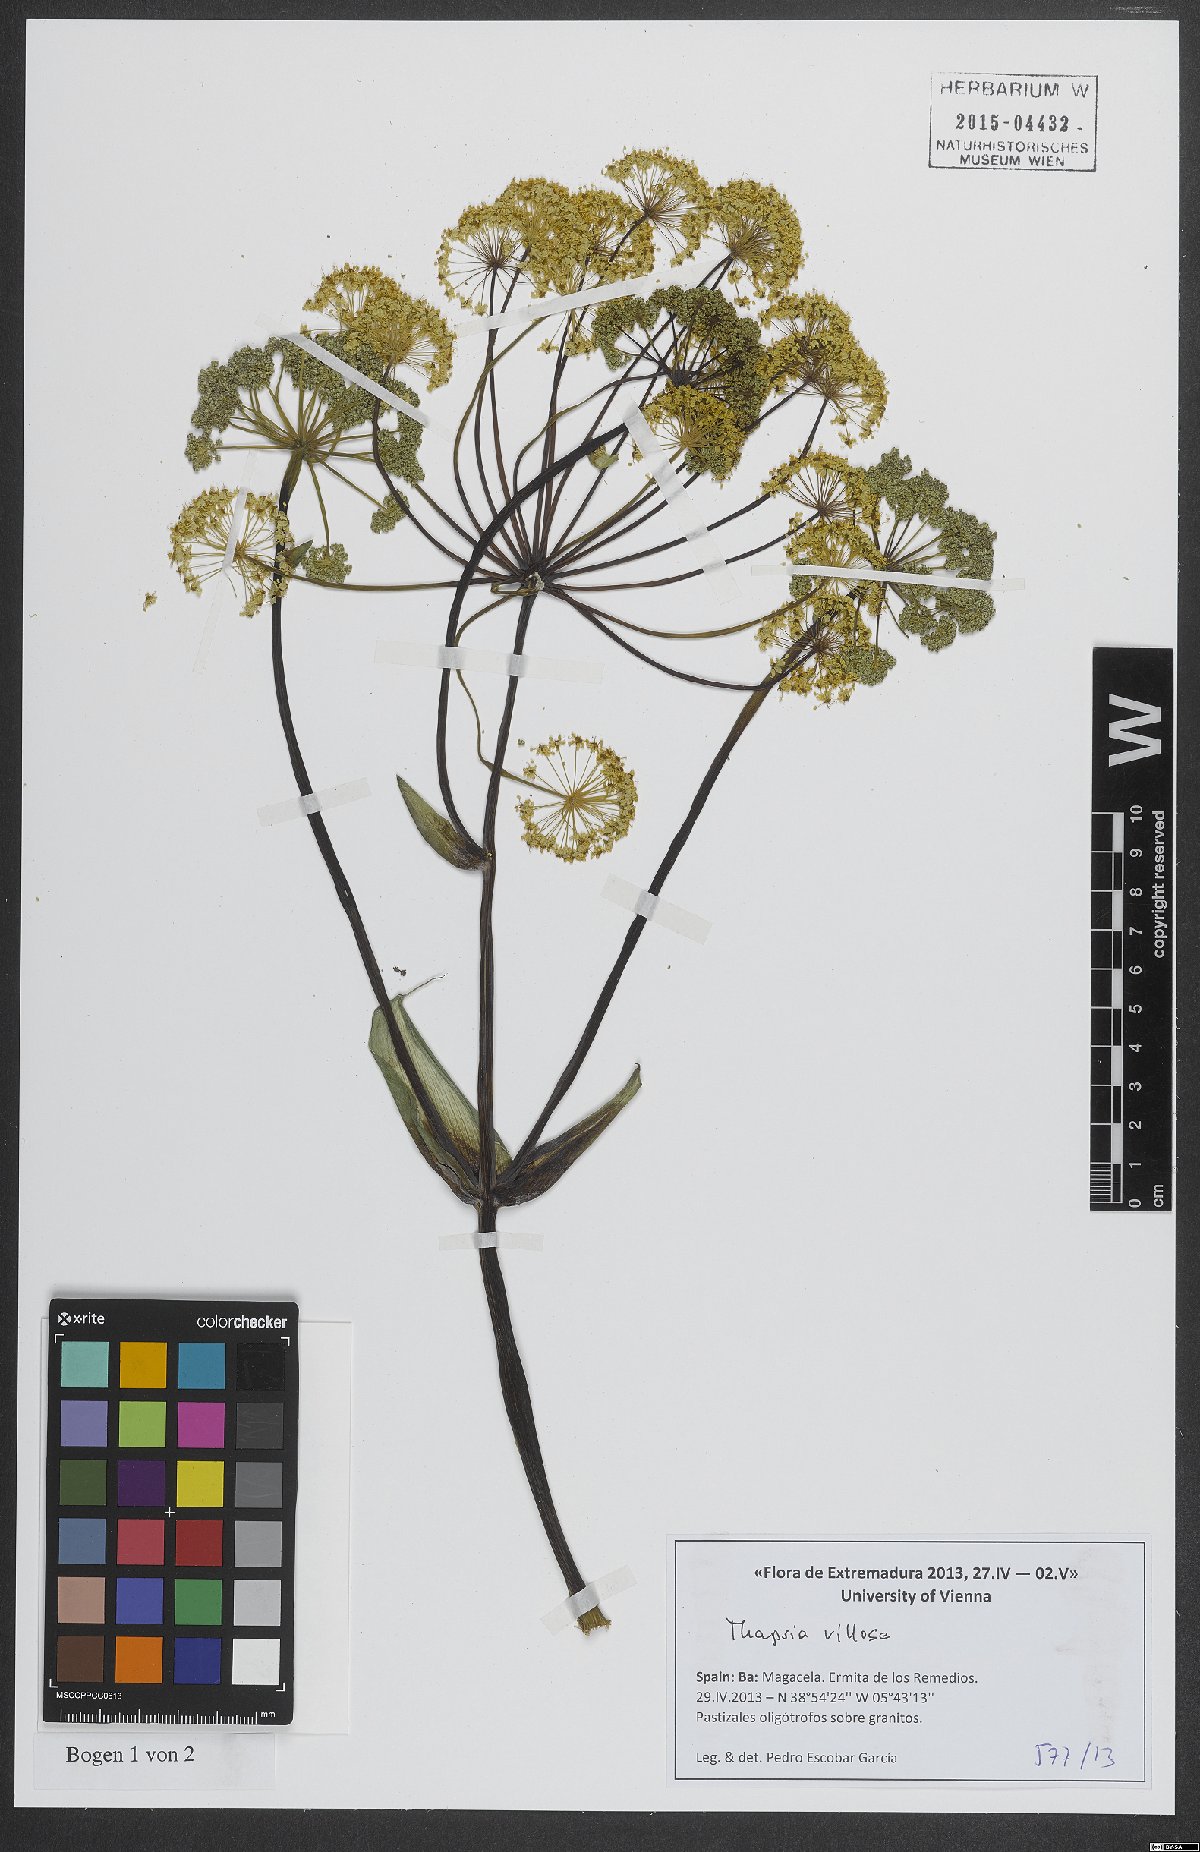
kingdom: Plantae
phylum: Tracheophyta
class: Magnoliopsida
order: Apiales
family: Apiaceae
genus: Thapsia
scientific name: Thapsia villosa
